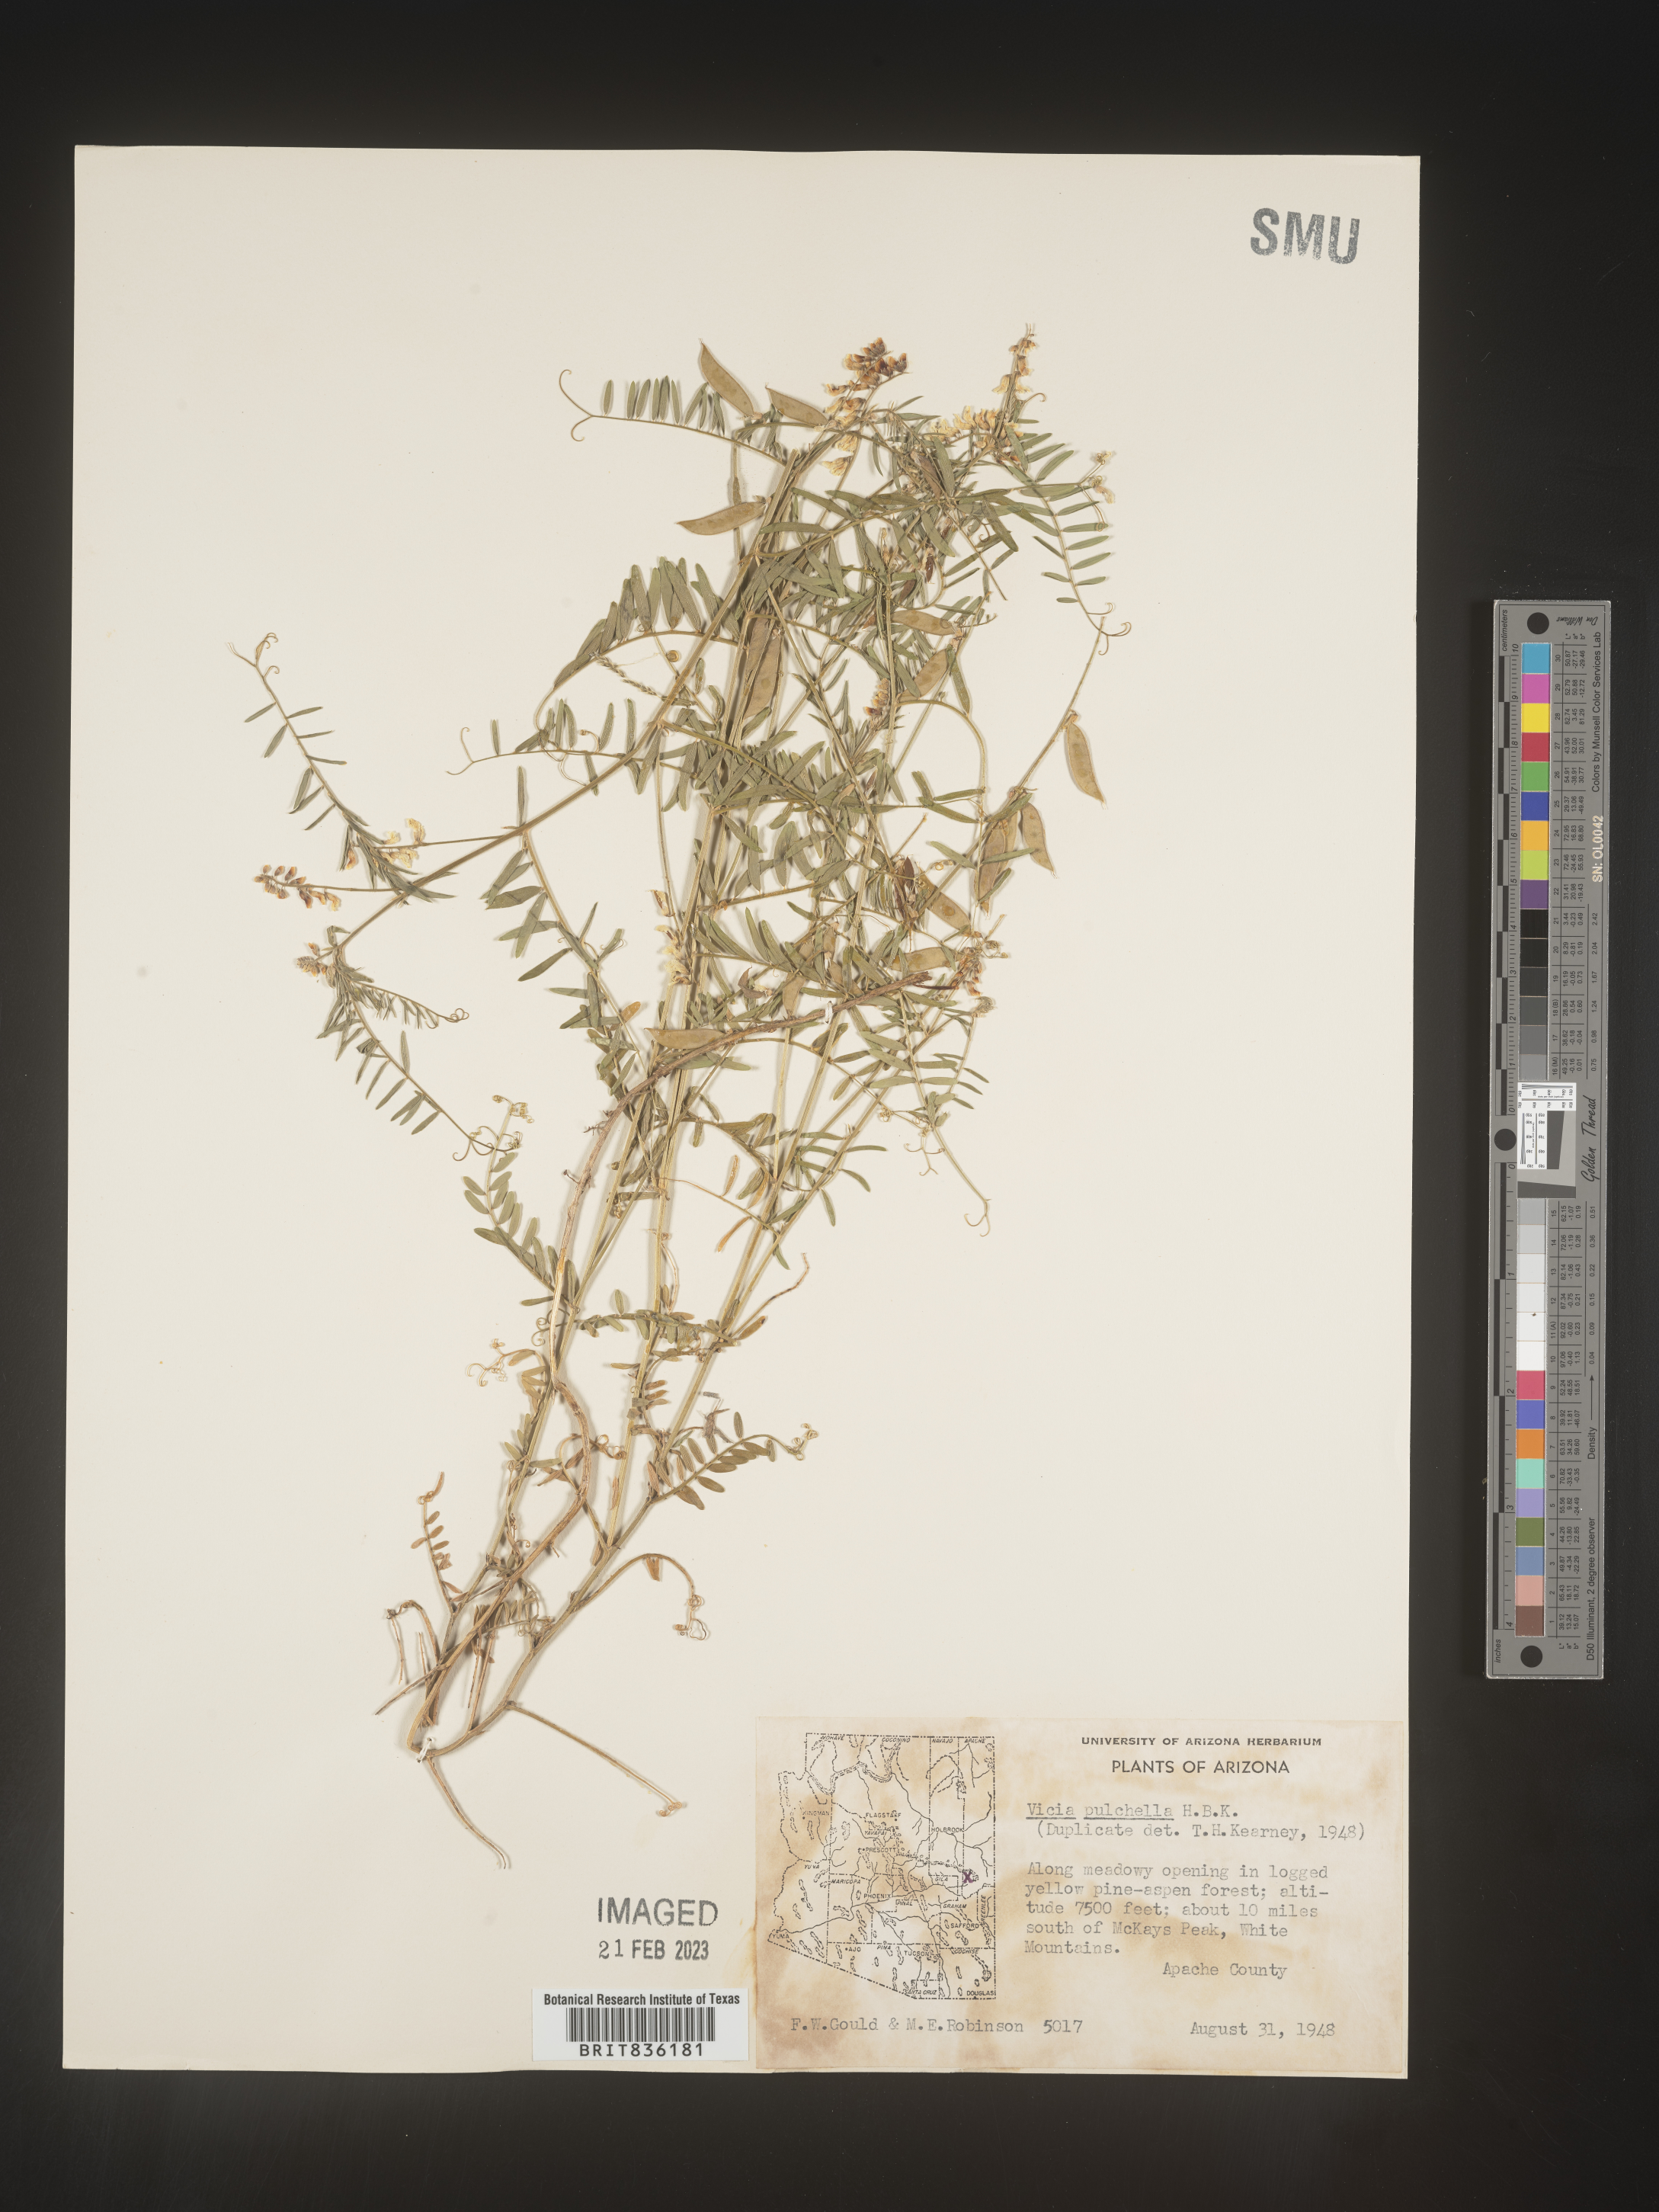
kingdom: Plantae
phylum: Tracheophyta
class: Magnoliopsida
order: Fabales
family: Fabaceae
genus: Vicia
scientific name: Vicia
